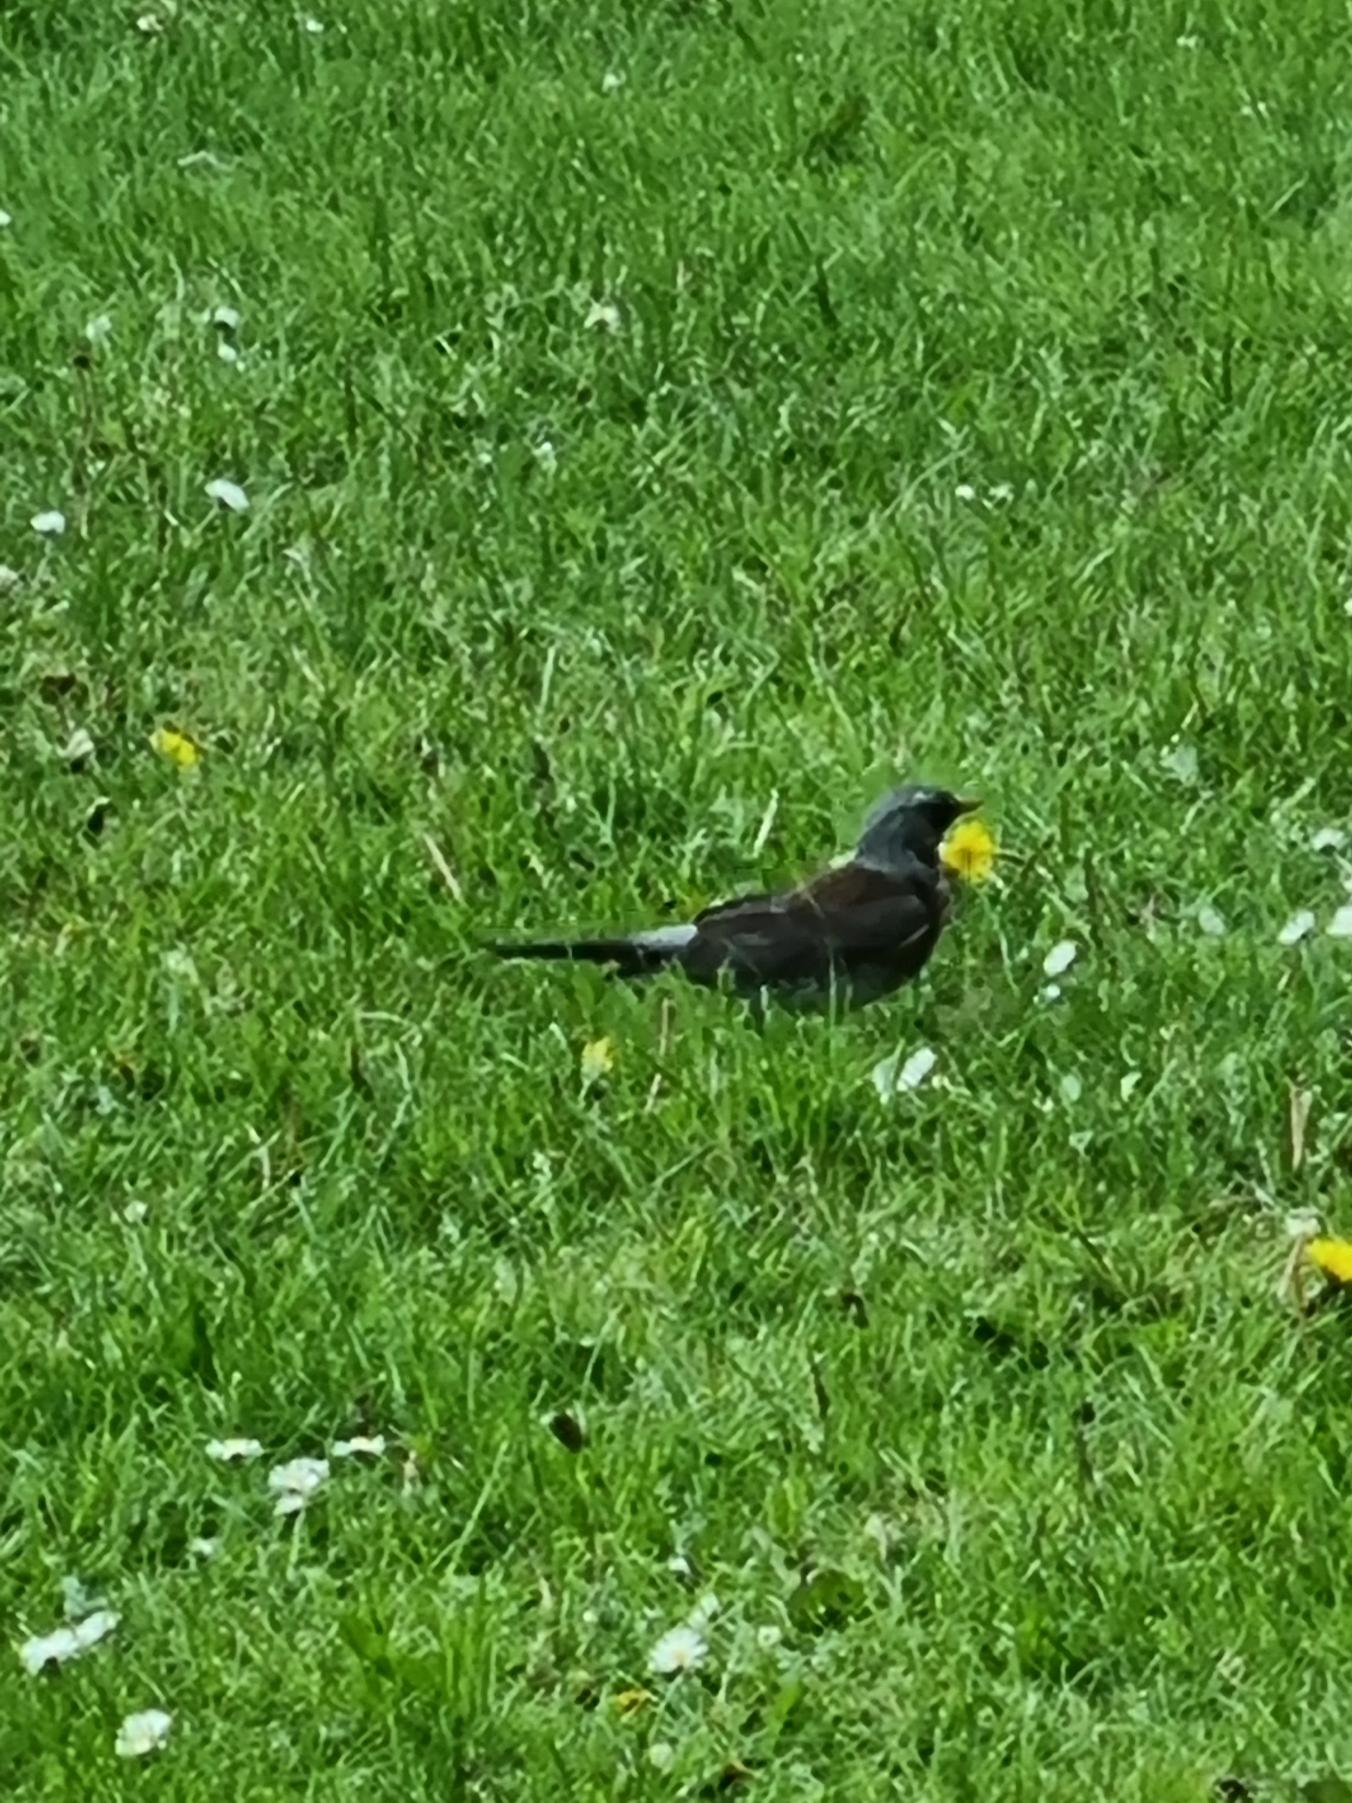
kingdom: Animalia
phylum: Chordata
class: Aves
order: Passeriformes
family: Turdidae
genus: Turdus
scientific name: Turdus pilaris
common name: Sjagger
